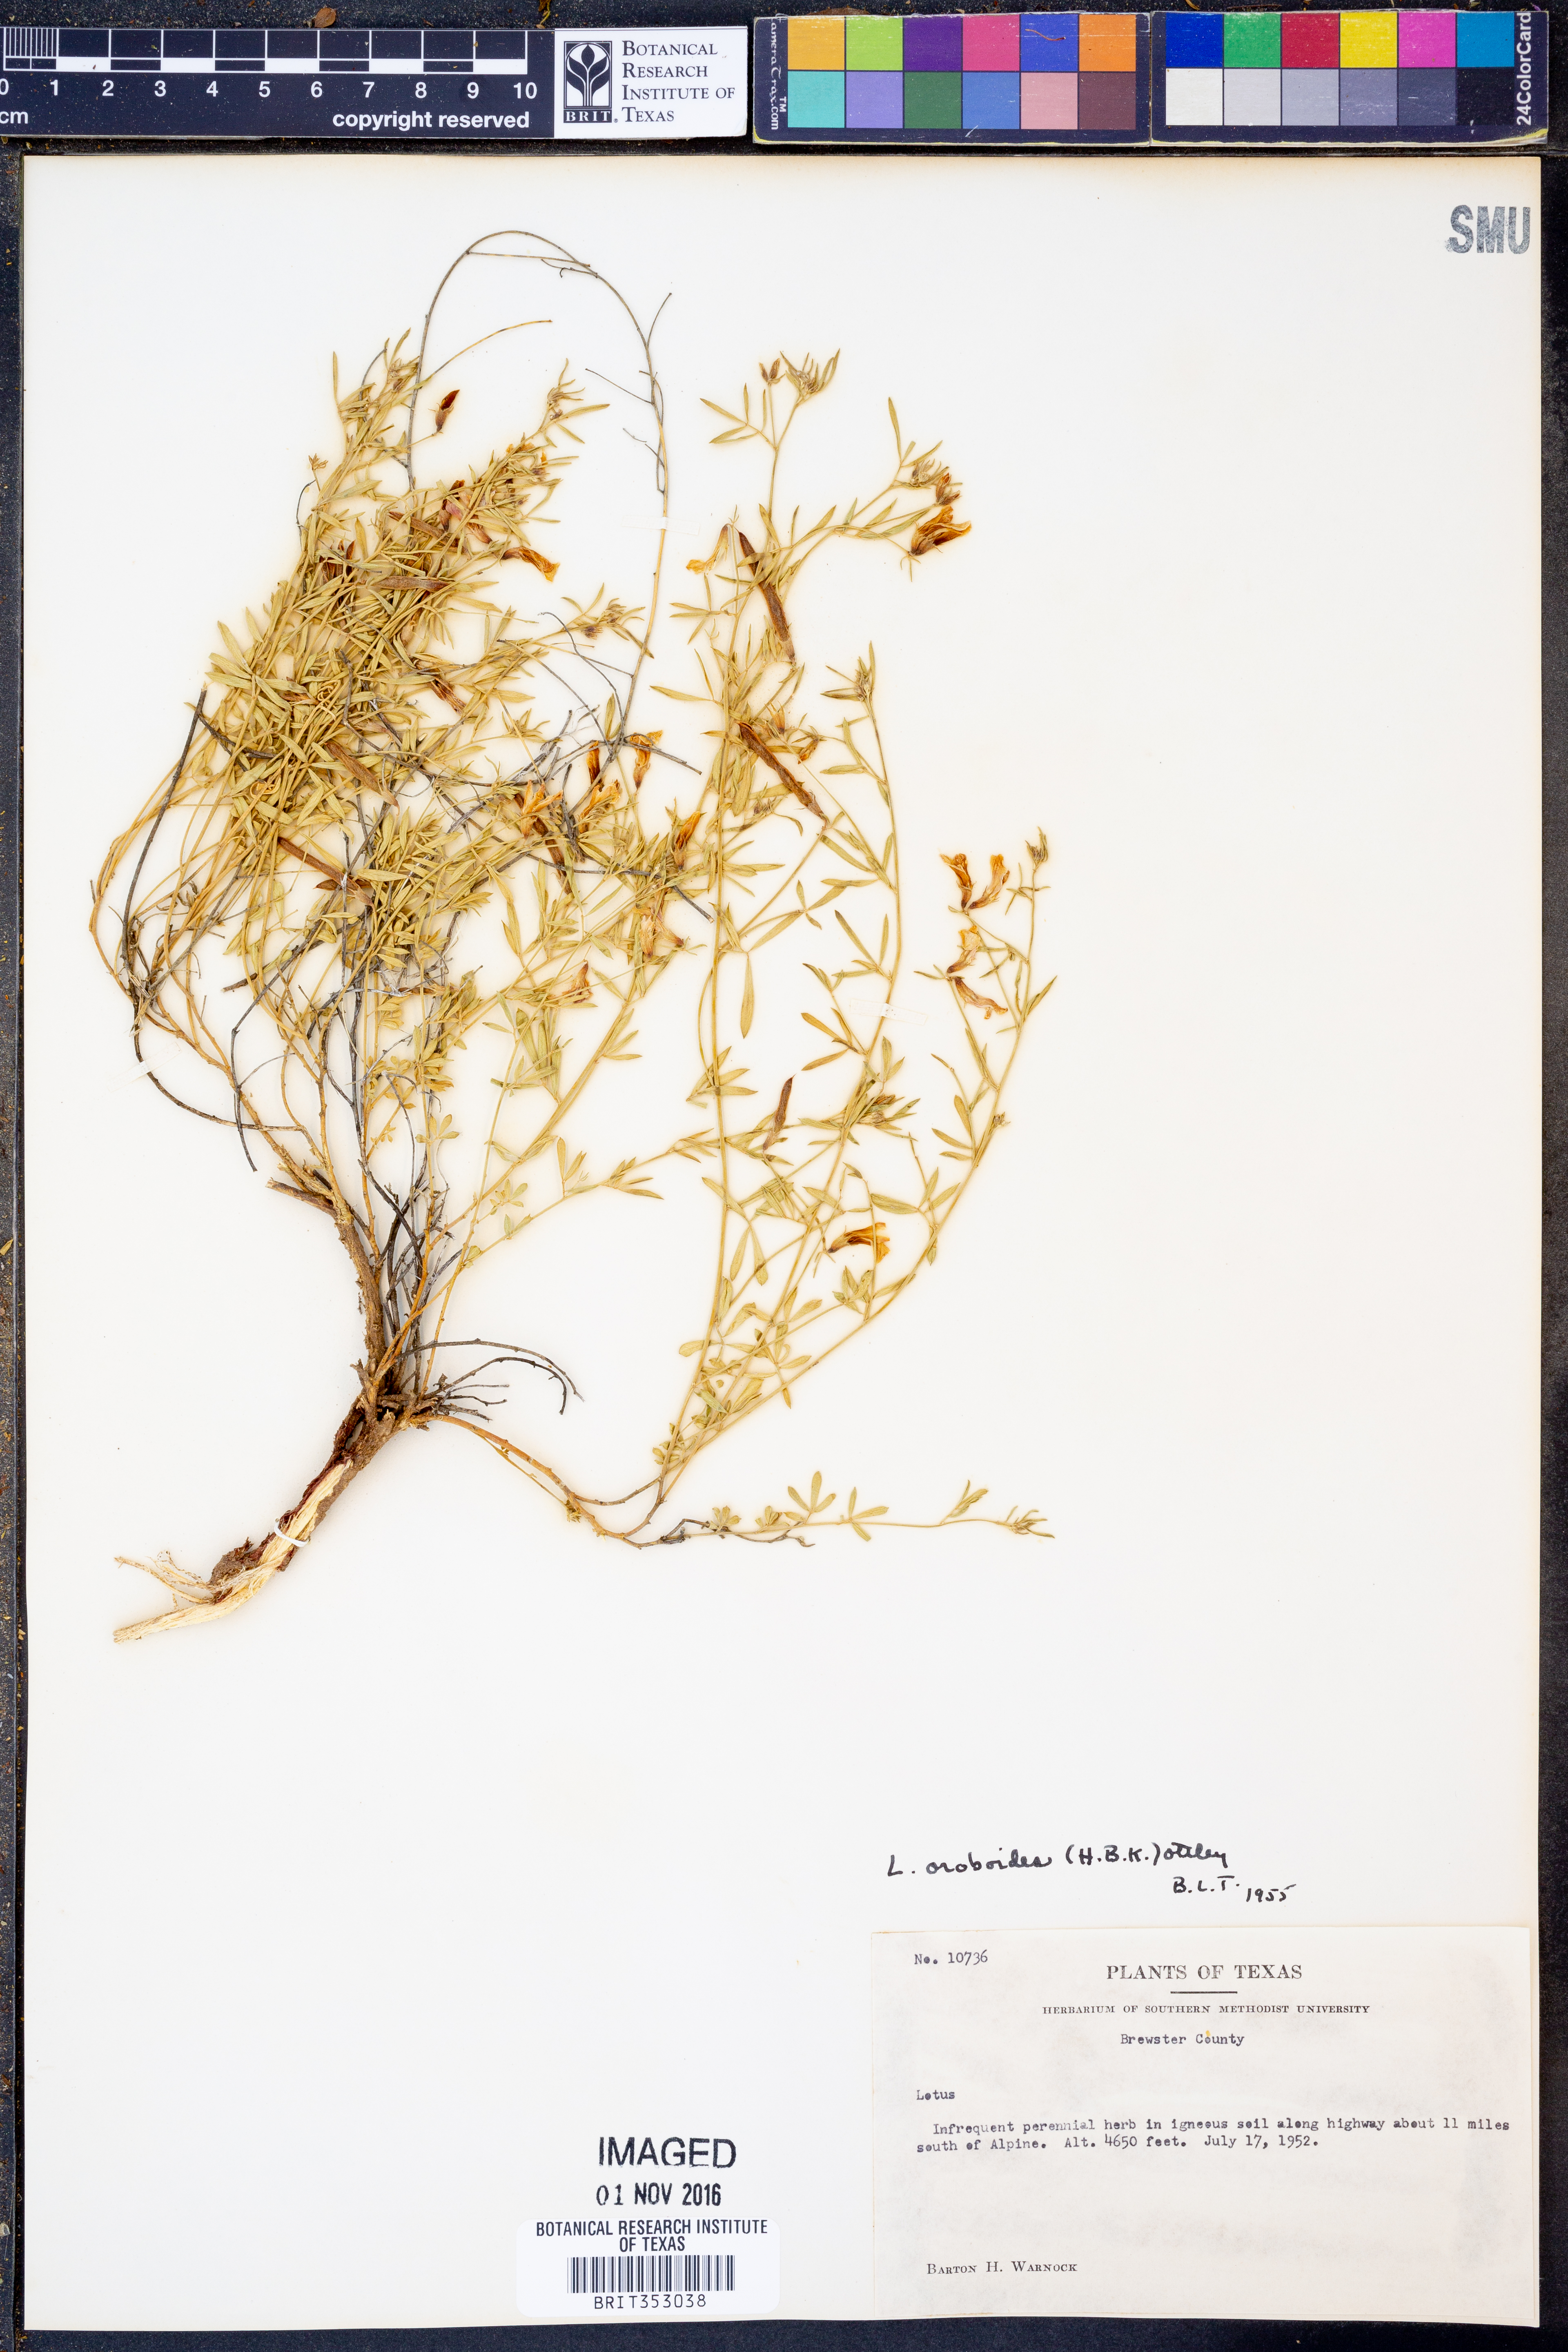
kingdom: Plantae
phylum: Tracheophyta
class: Magnoliopsida
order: Fabales
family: Fabaceae
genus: Acmispon
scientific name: Acmispon oroboides
